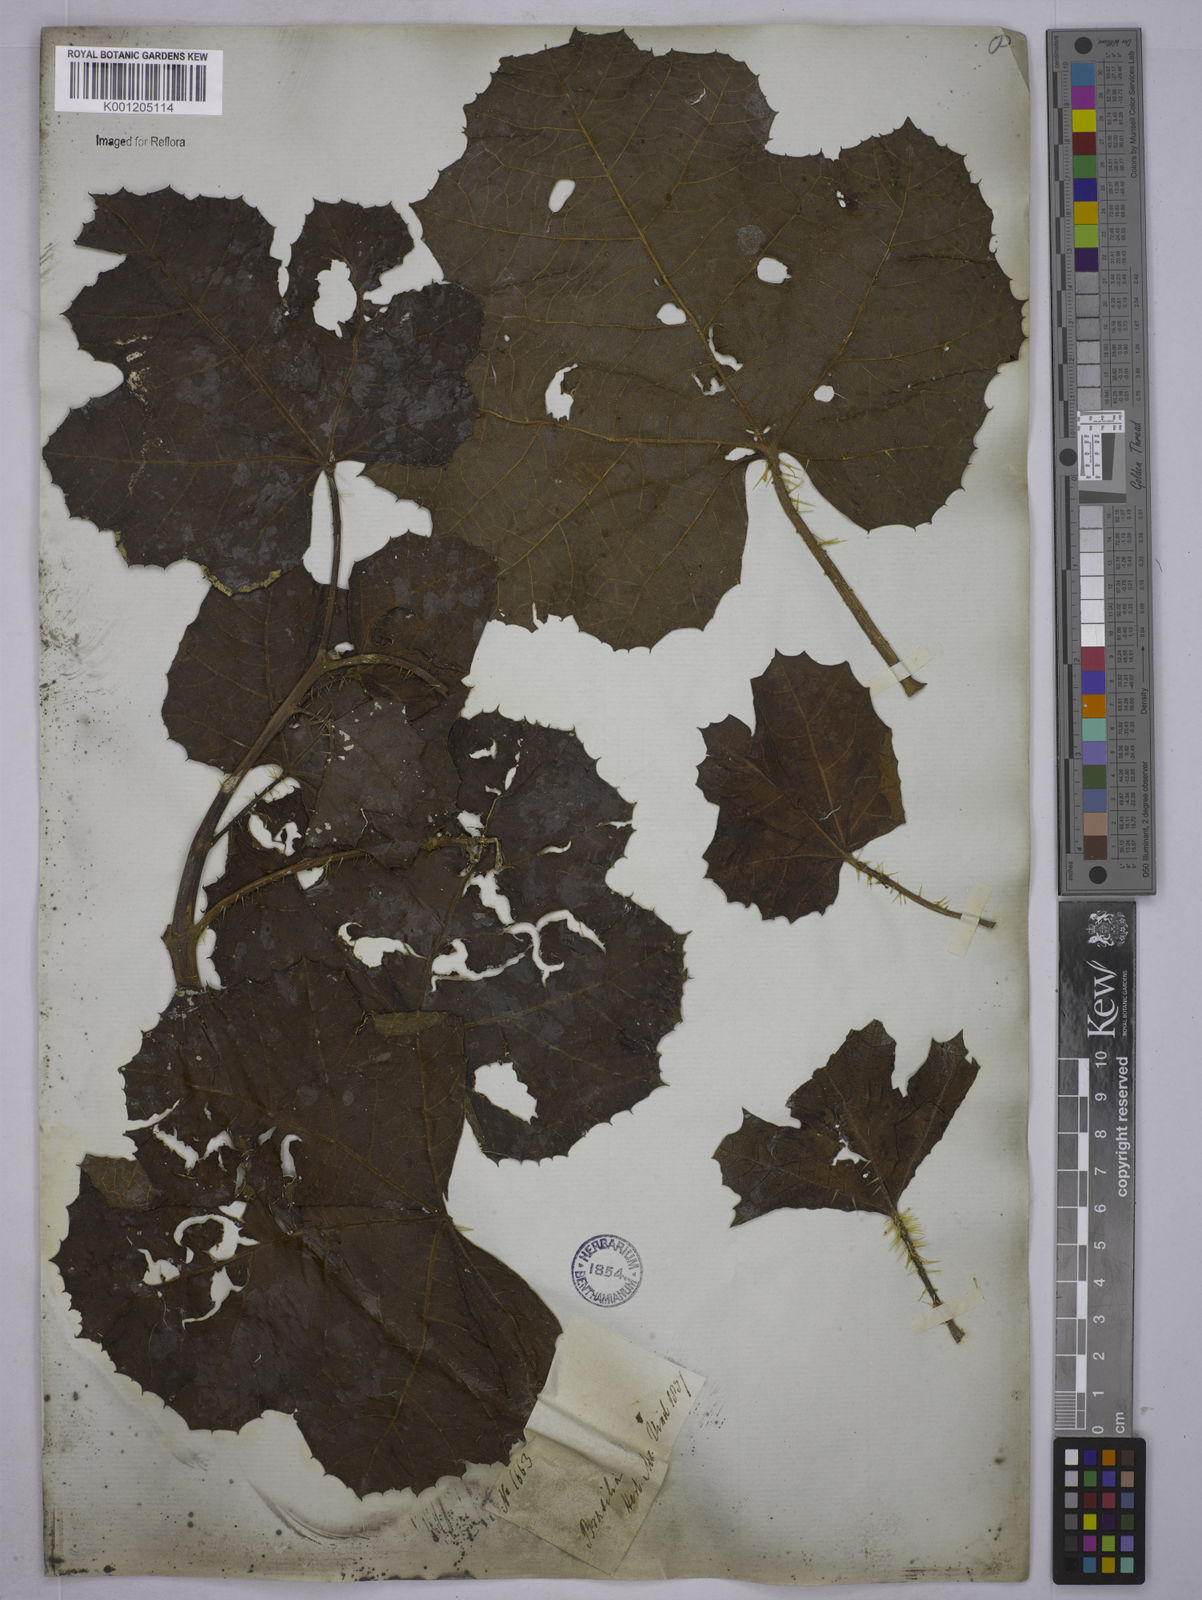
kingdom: Plantae
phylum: Tracheophyta
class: Magnoliopsida
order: Malpighiales
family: Euphorbiaceae
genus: Cnidoscolus
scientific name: Cnidoscolus vitifolius
